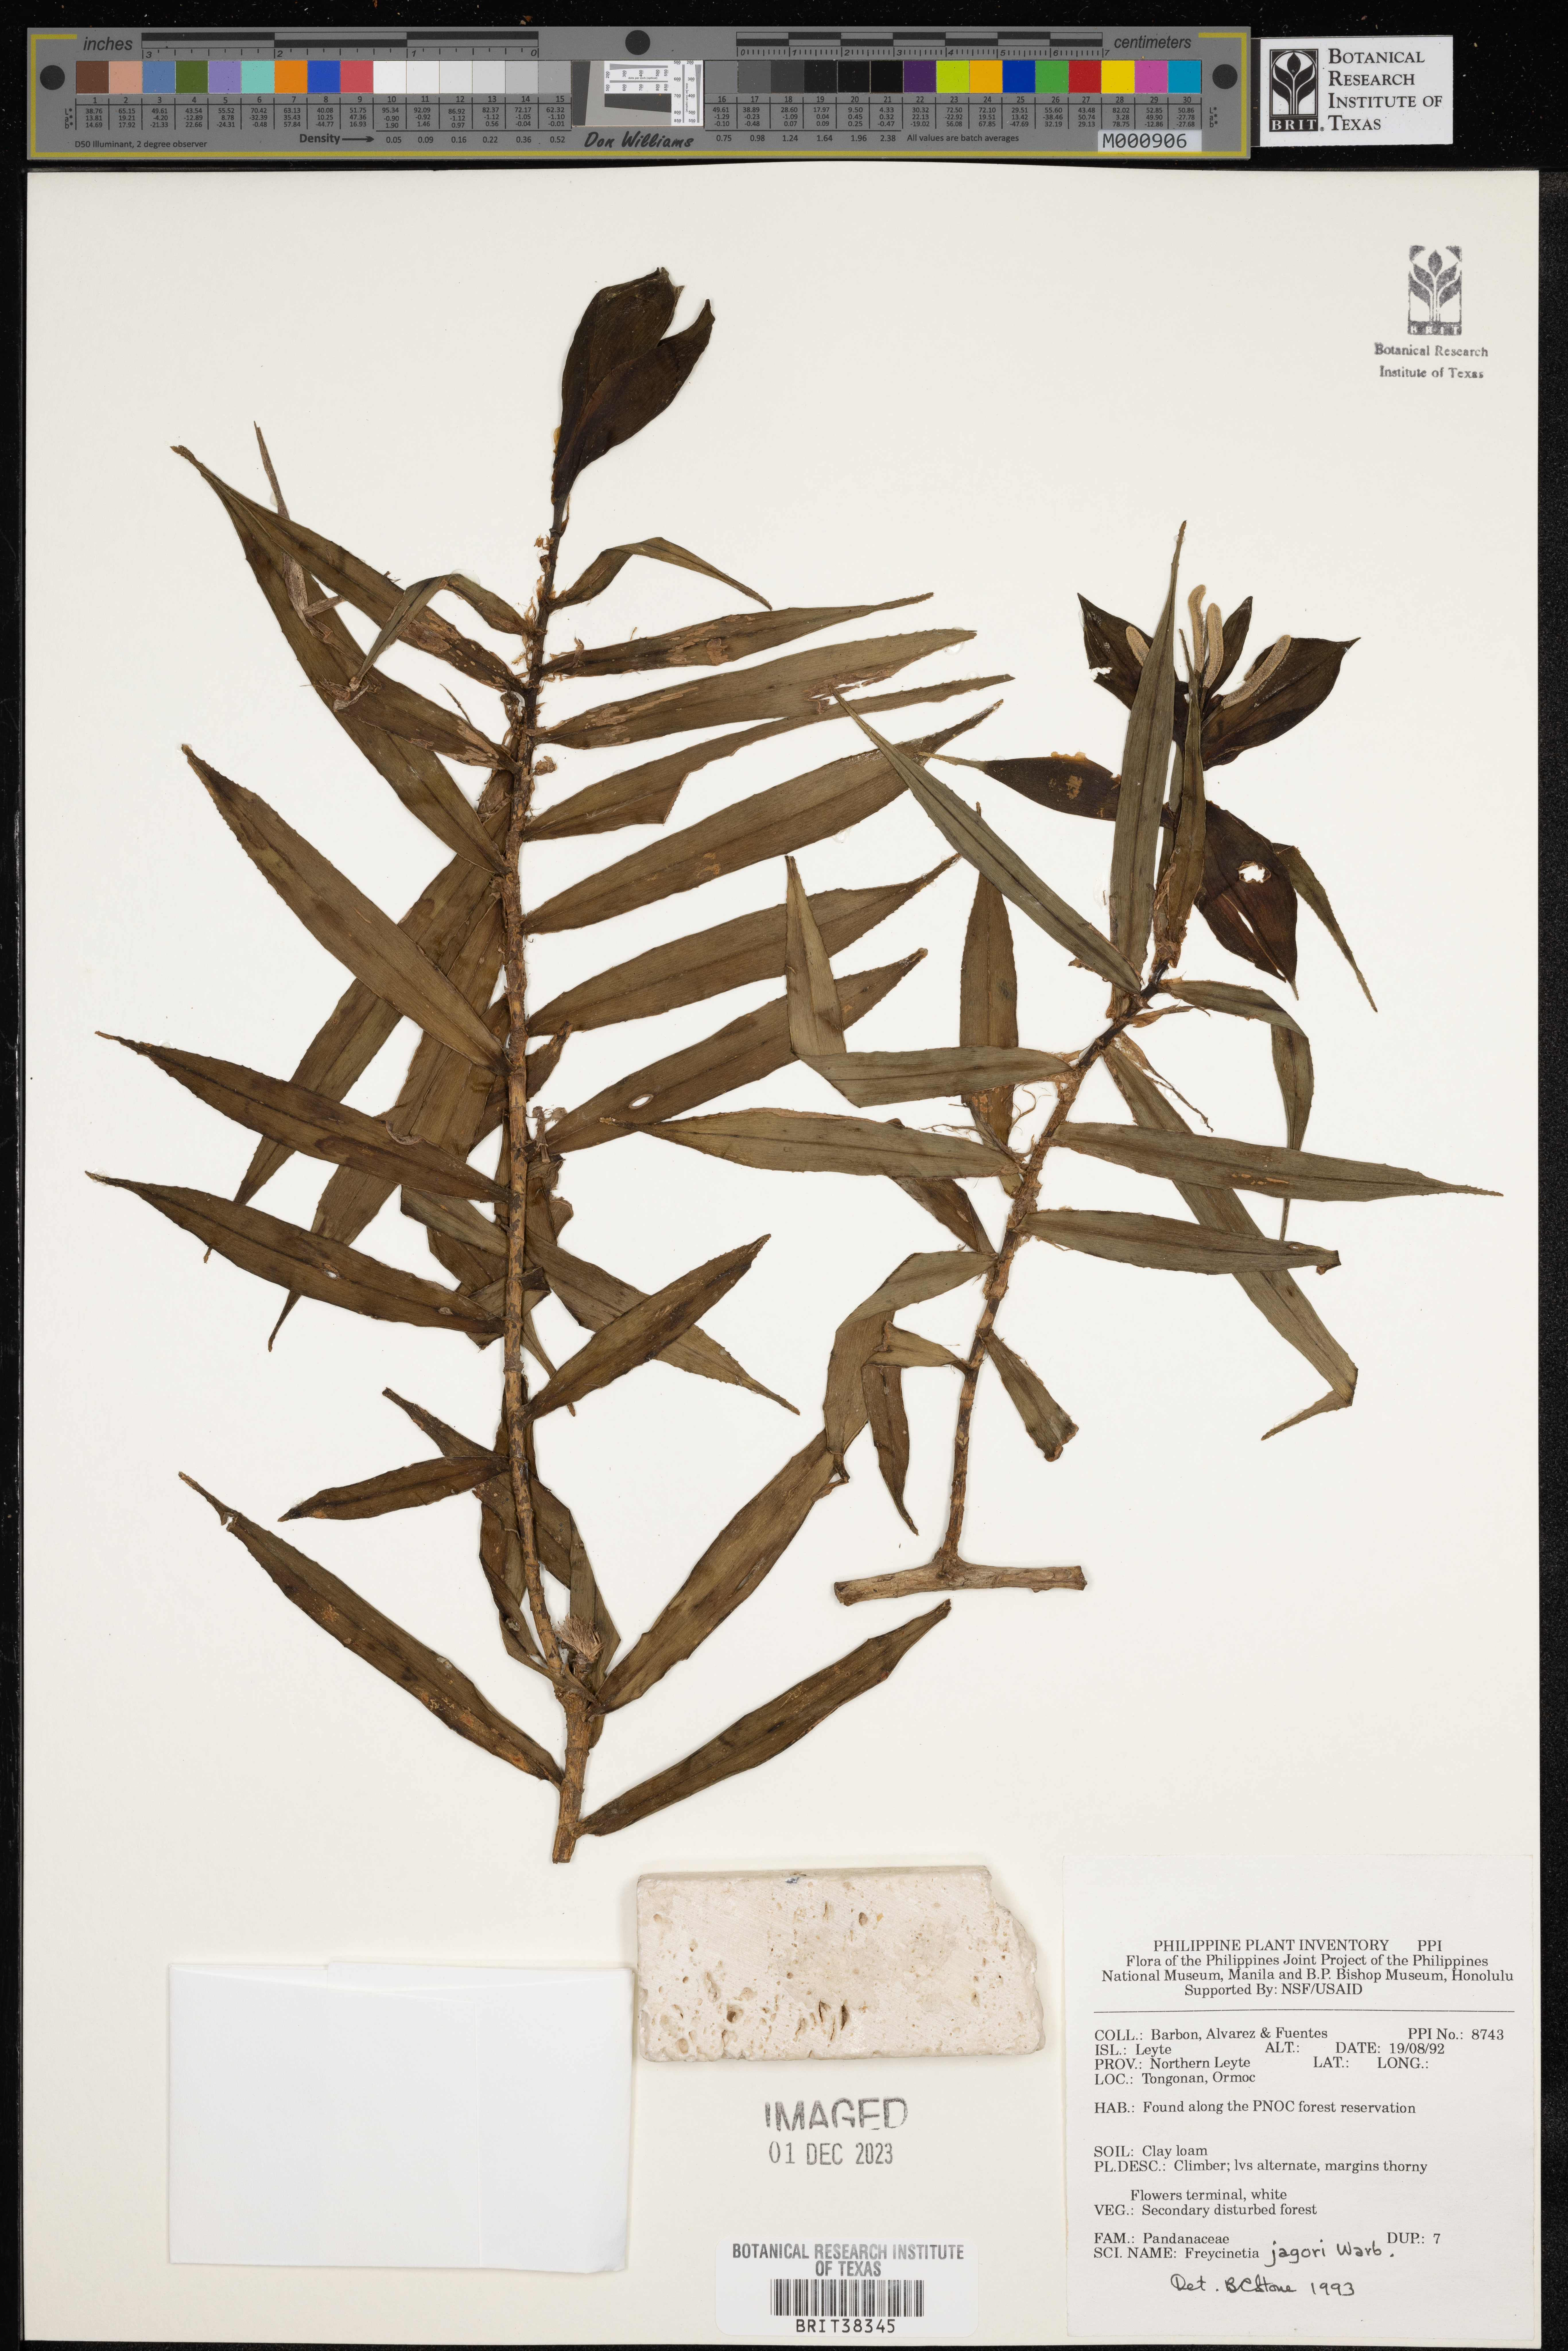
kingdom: Plantae
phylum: Tracheophyta
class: Liliopsida
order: Pandanales
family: Pandanaceae
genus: Freycinetia
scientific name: Freycinetia jagorii
